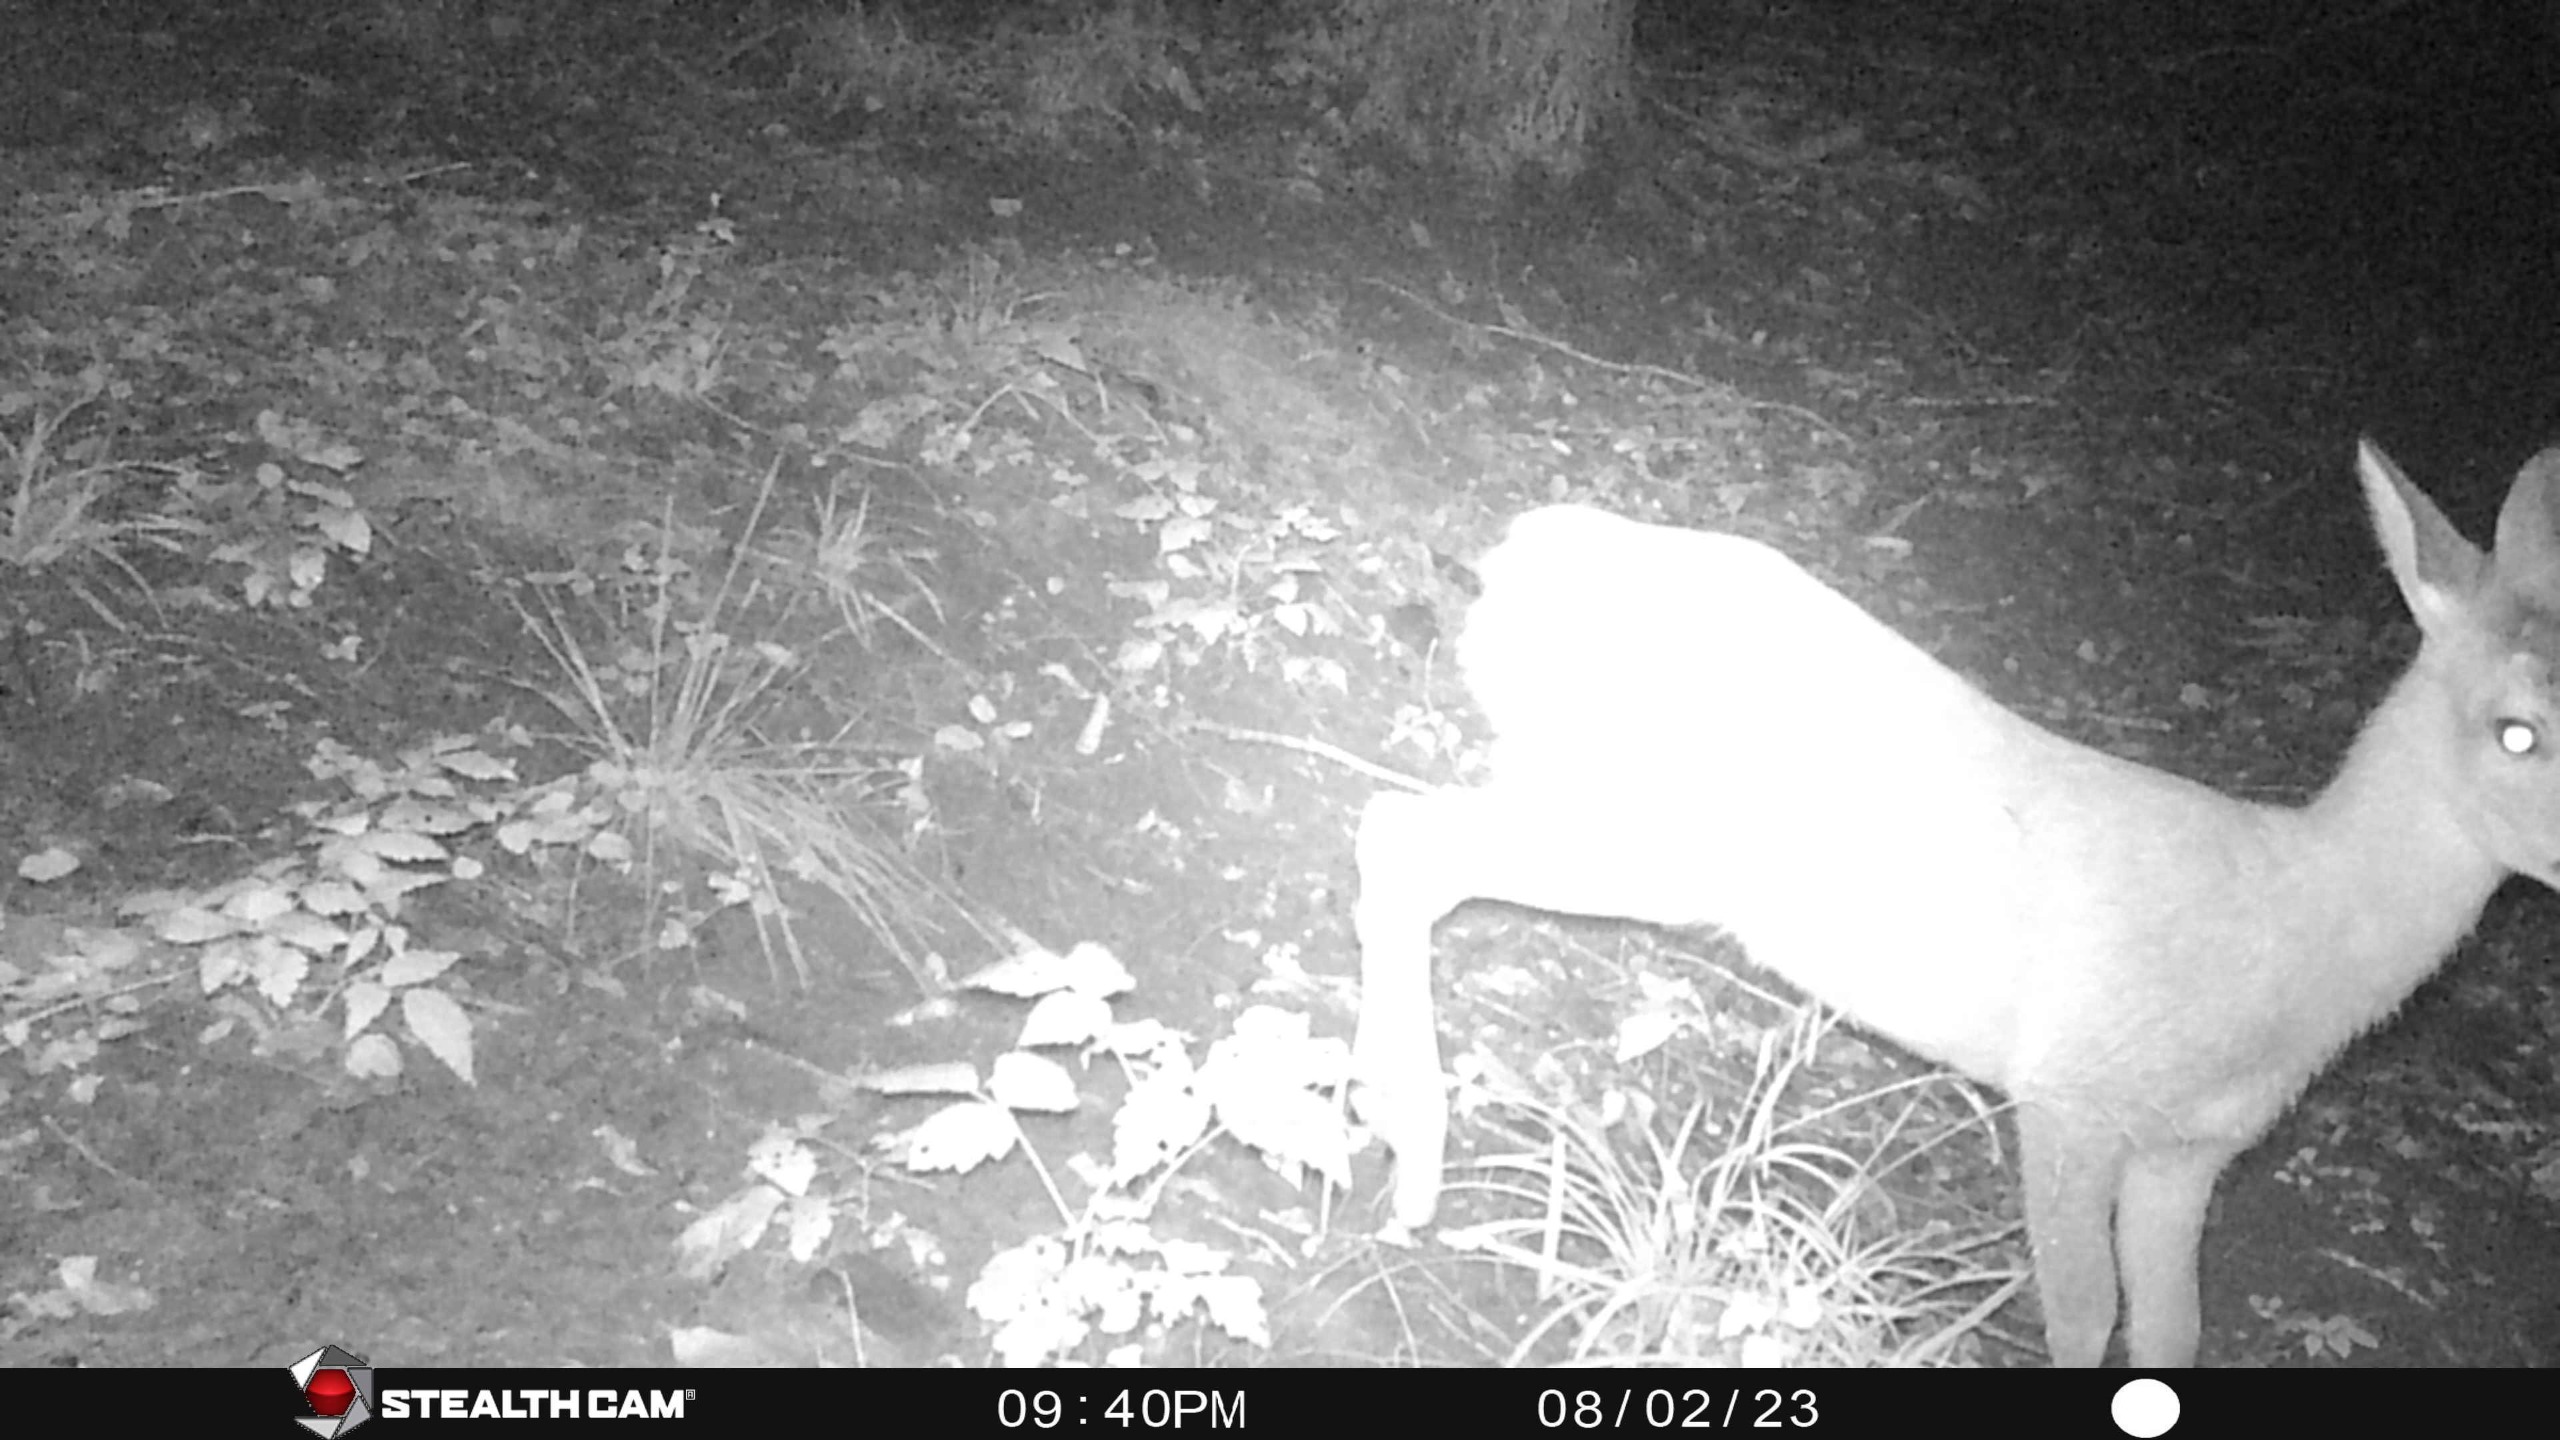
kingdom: Animalia
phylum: Chordata
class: Mammalia
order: Artiodactyla
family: Cervidae
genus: Capreolus
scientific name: Capreolus capreolus
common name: Rådyr
